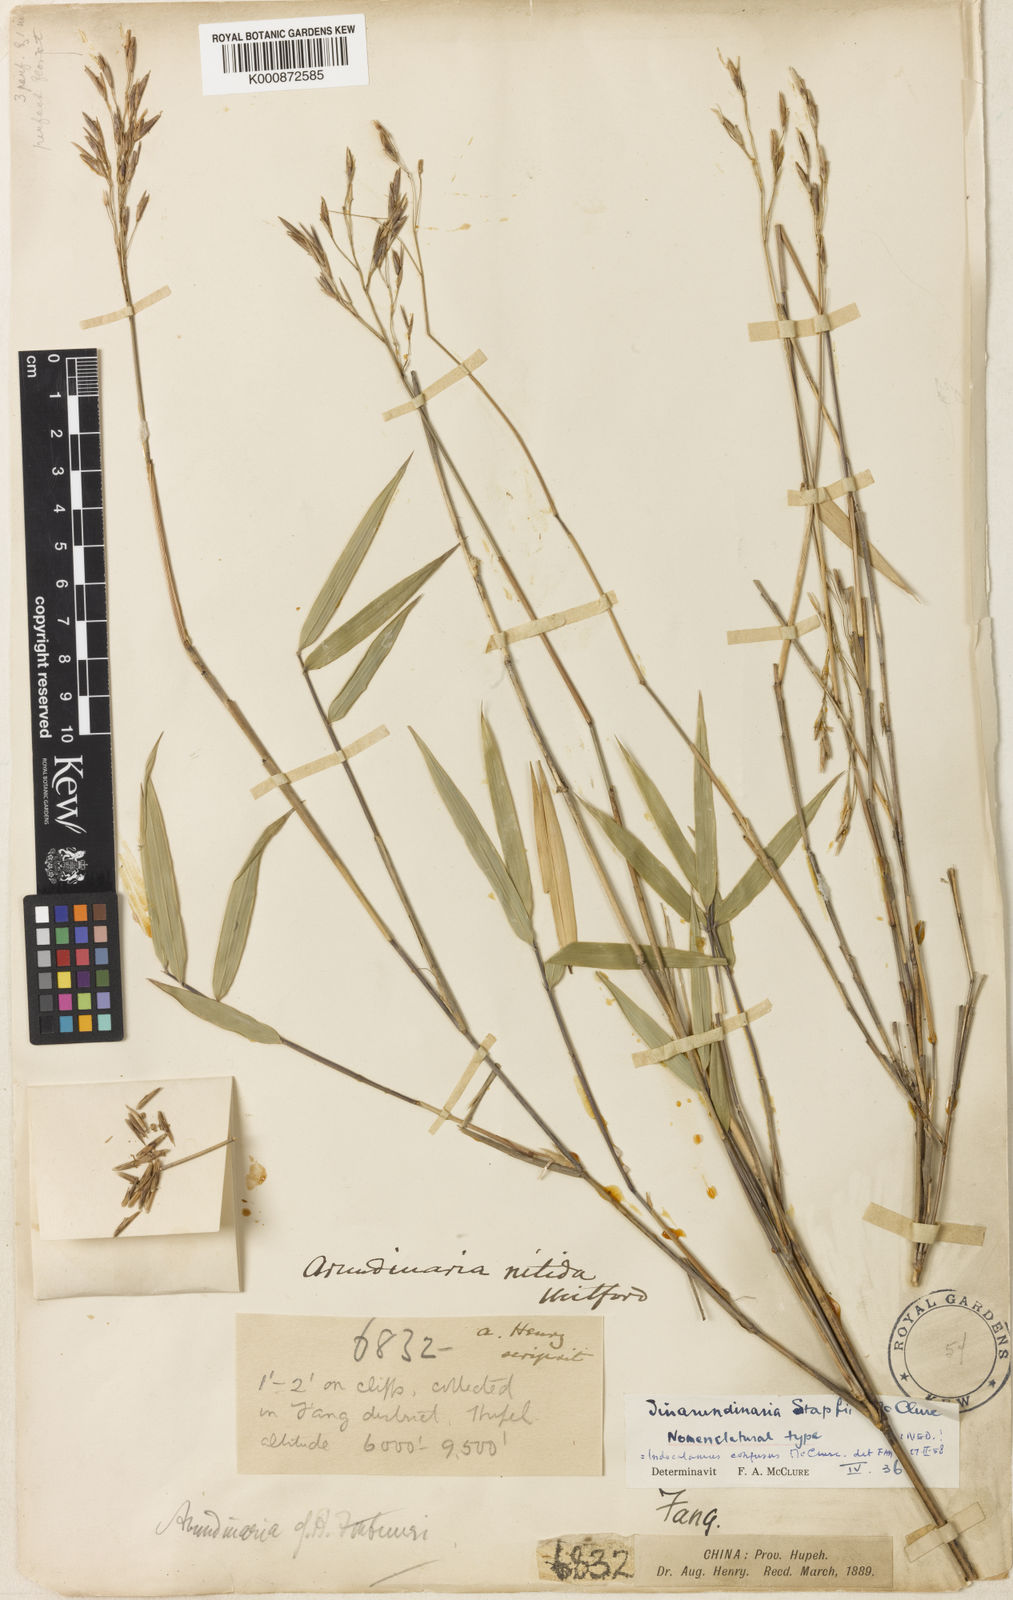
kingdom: Plantae
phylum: Tracheophyta
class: Liliopsida
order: Poales
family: Poaceae
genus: Yushania
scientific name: Yushania confusa
